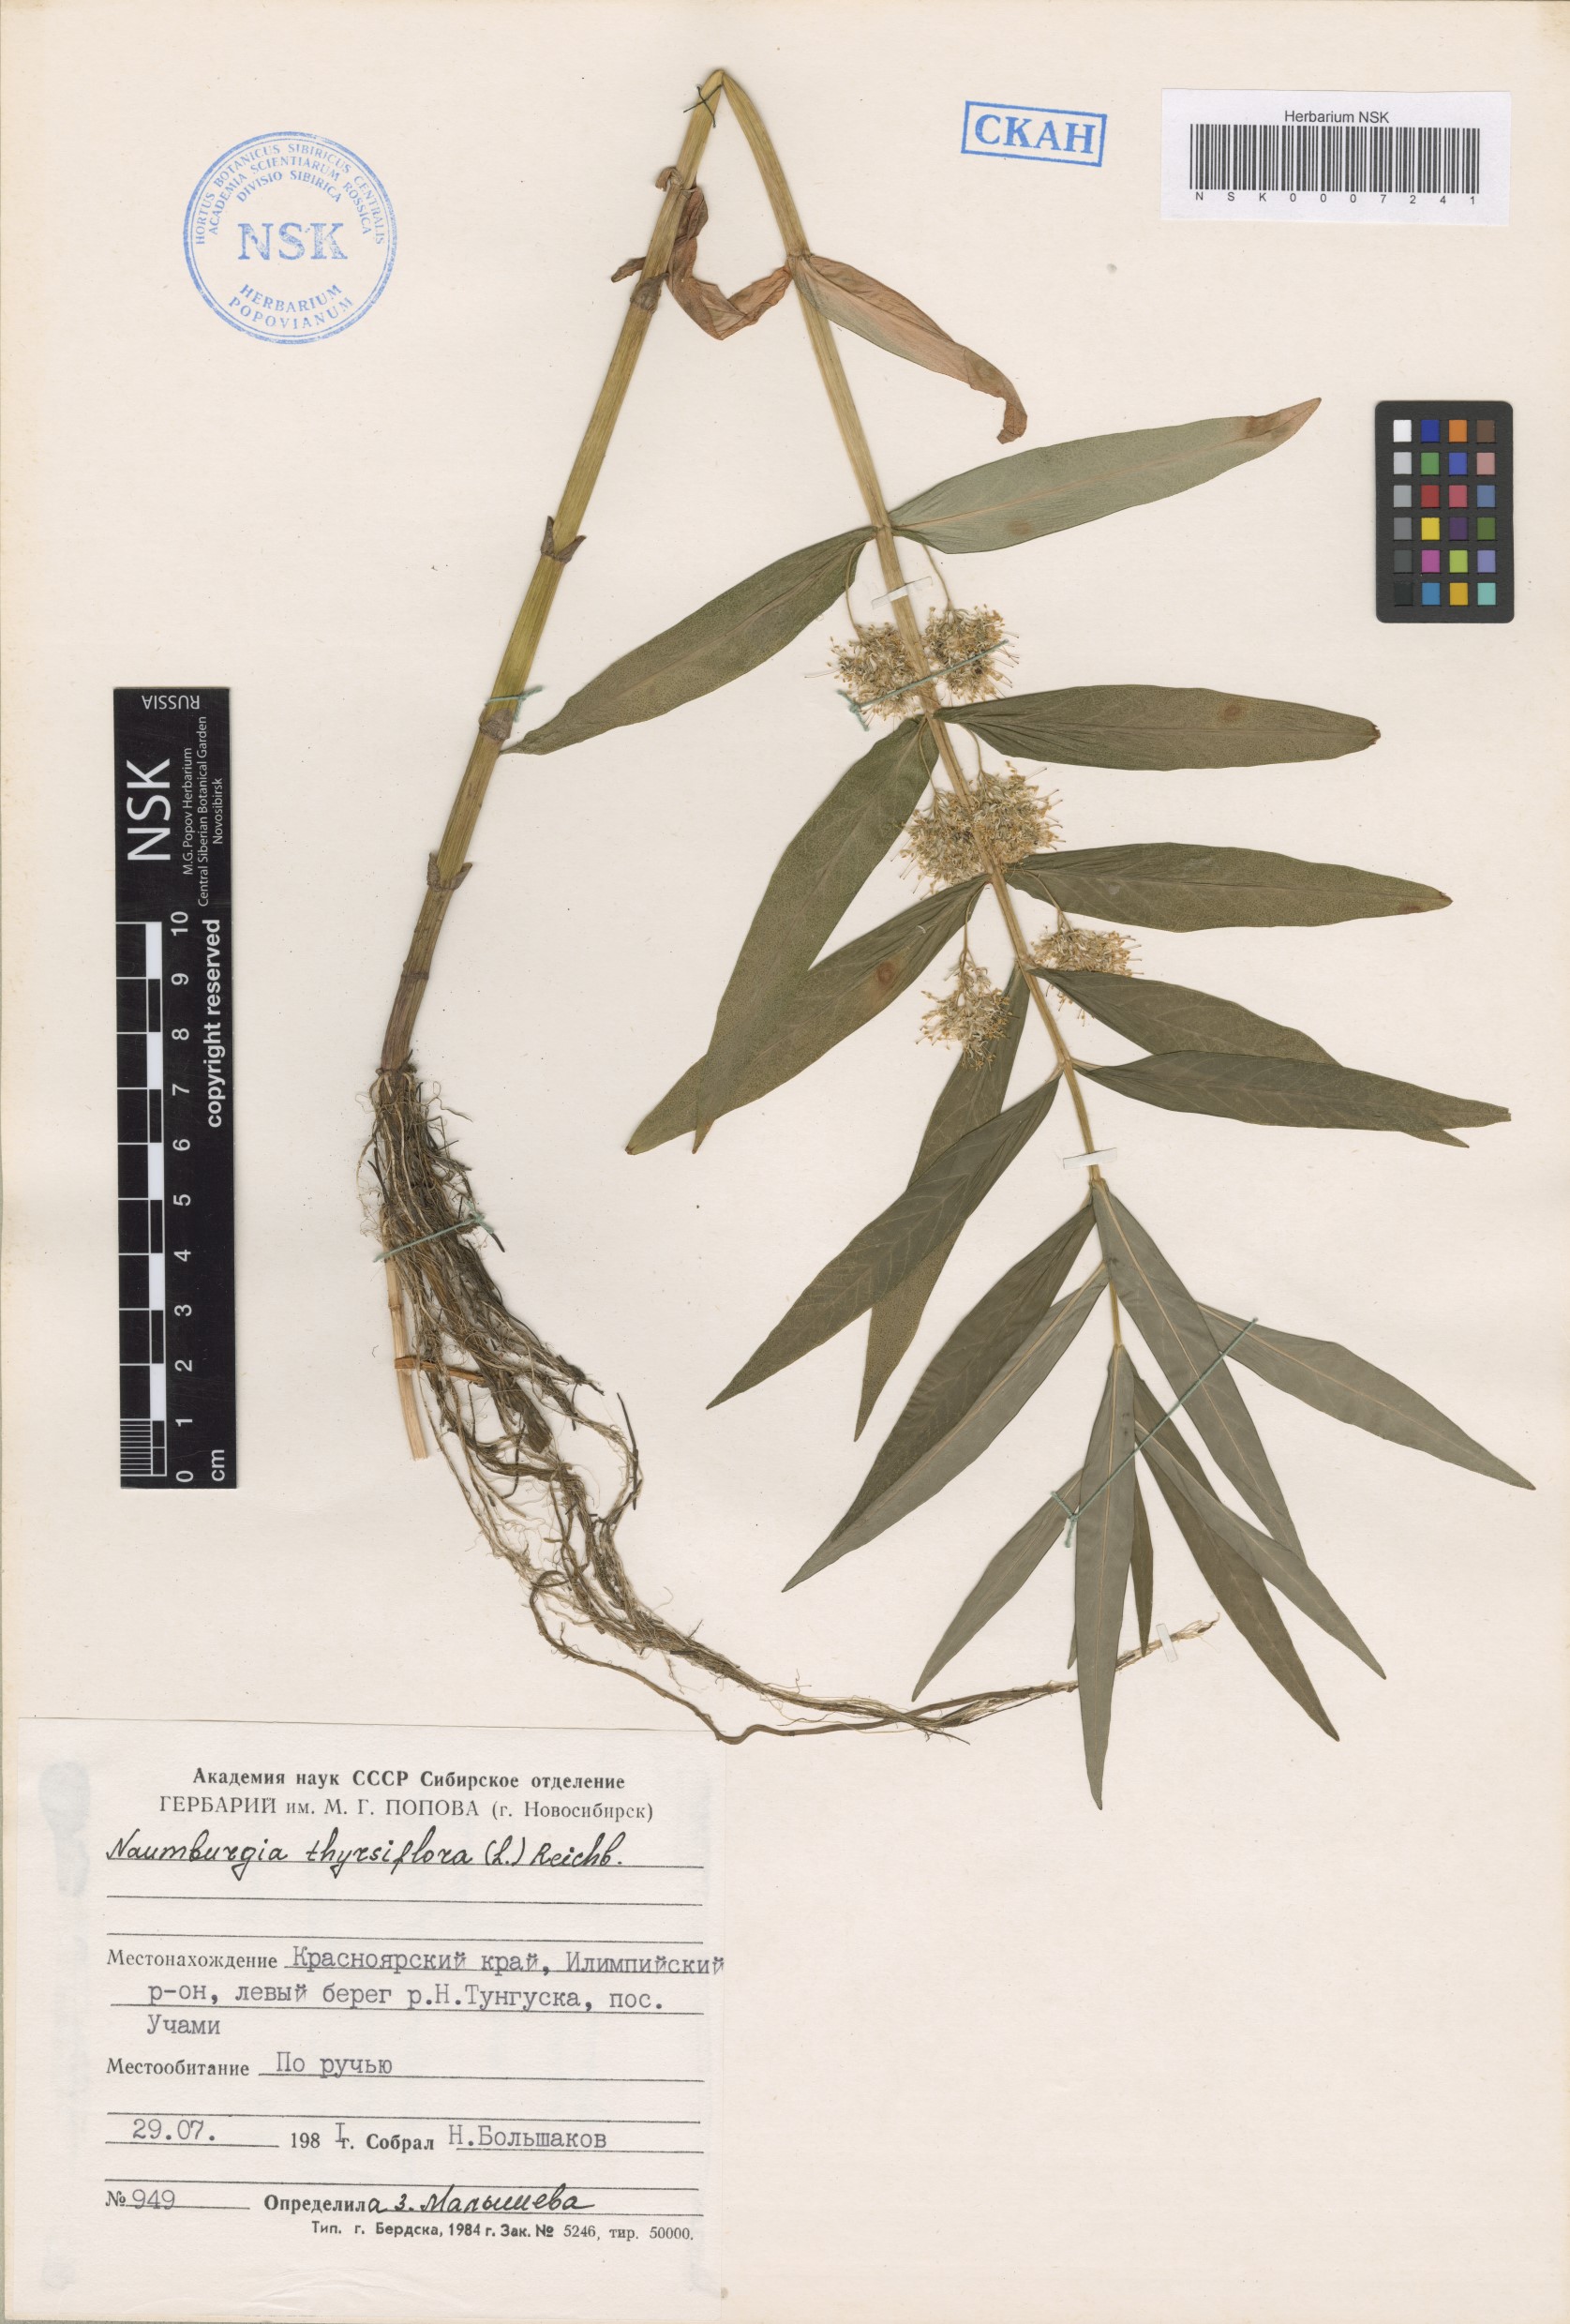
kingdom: Plantae
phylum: Tracheophyta
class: Magnoliopsida
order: Ericales
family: Primulaceae
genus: Lysimachia
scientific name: Lysimachia thyrsiflora
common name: Tufted loosestrife
